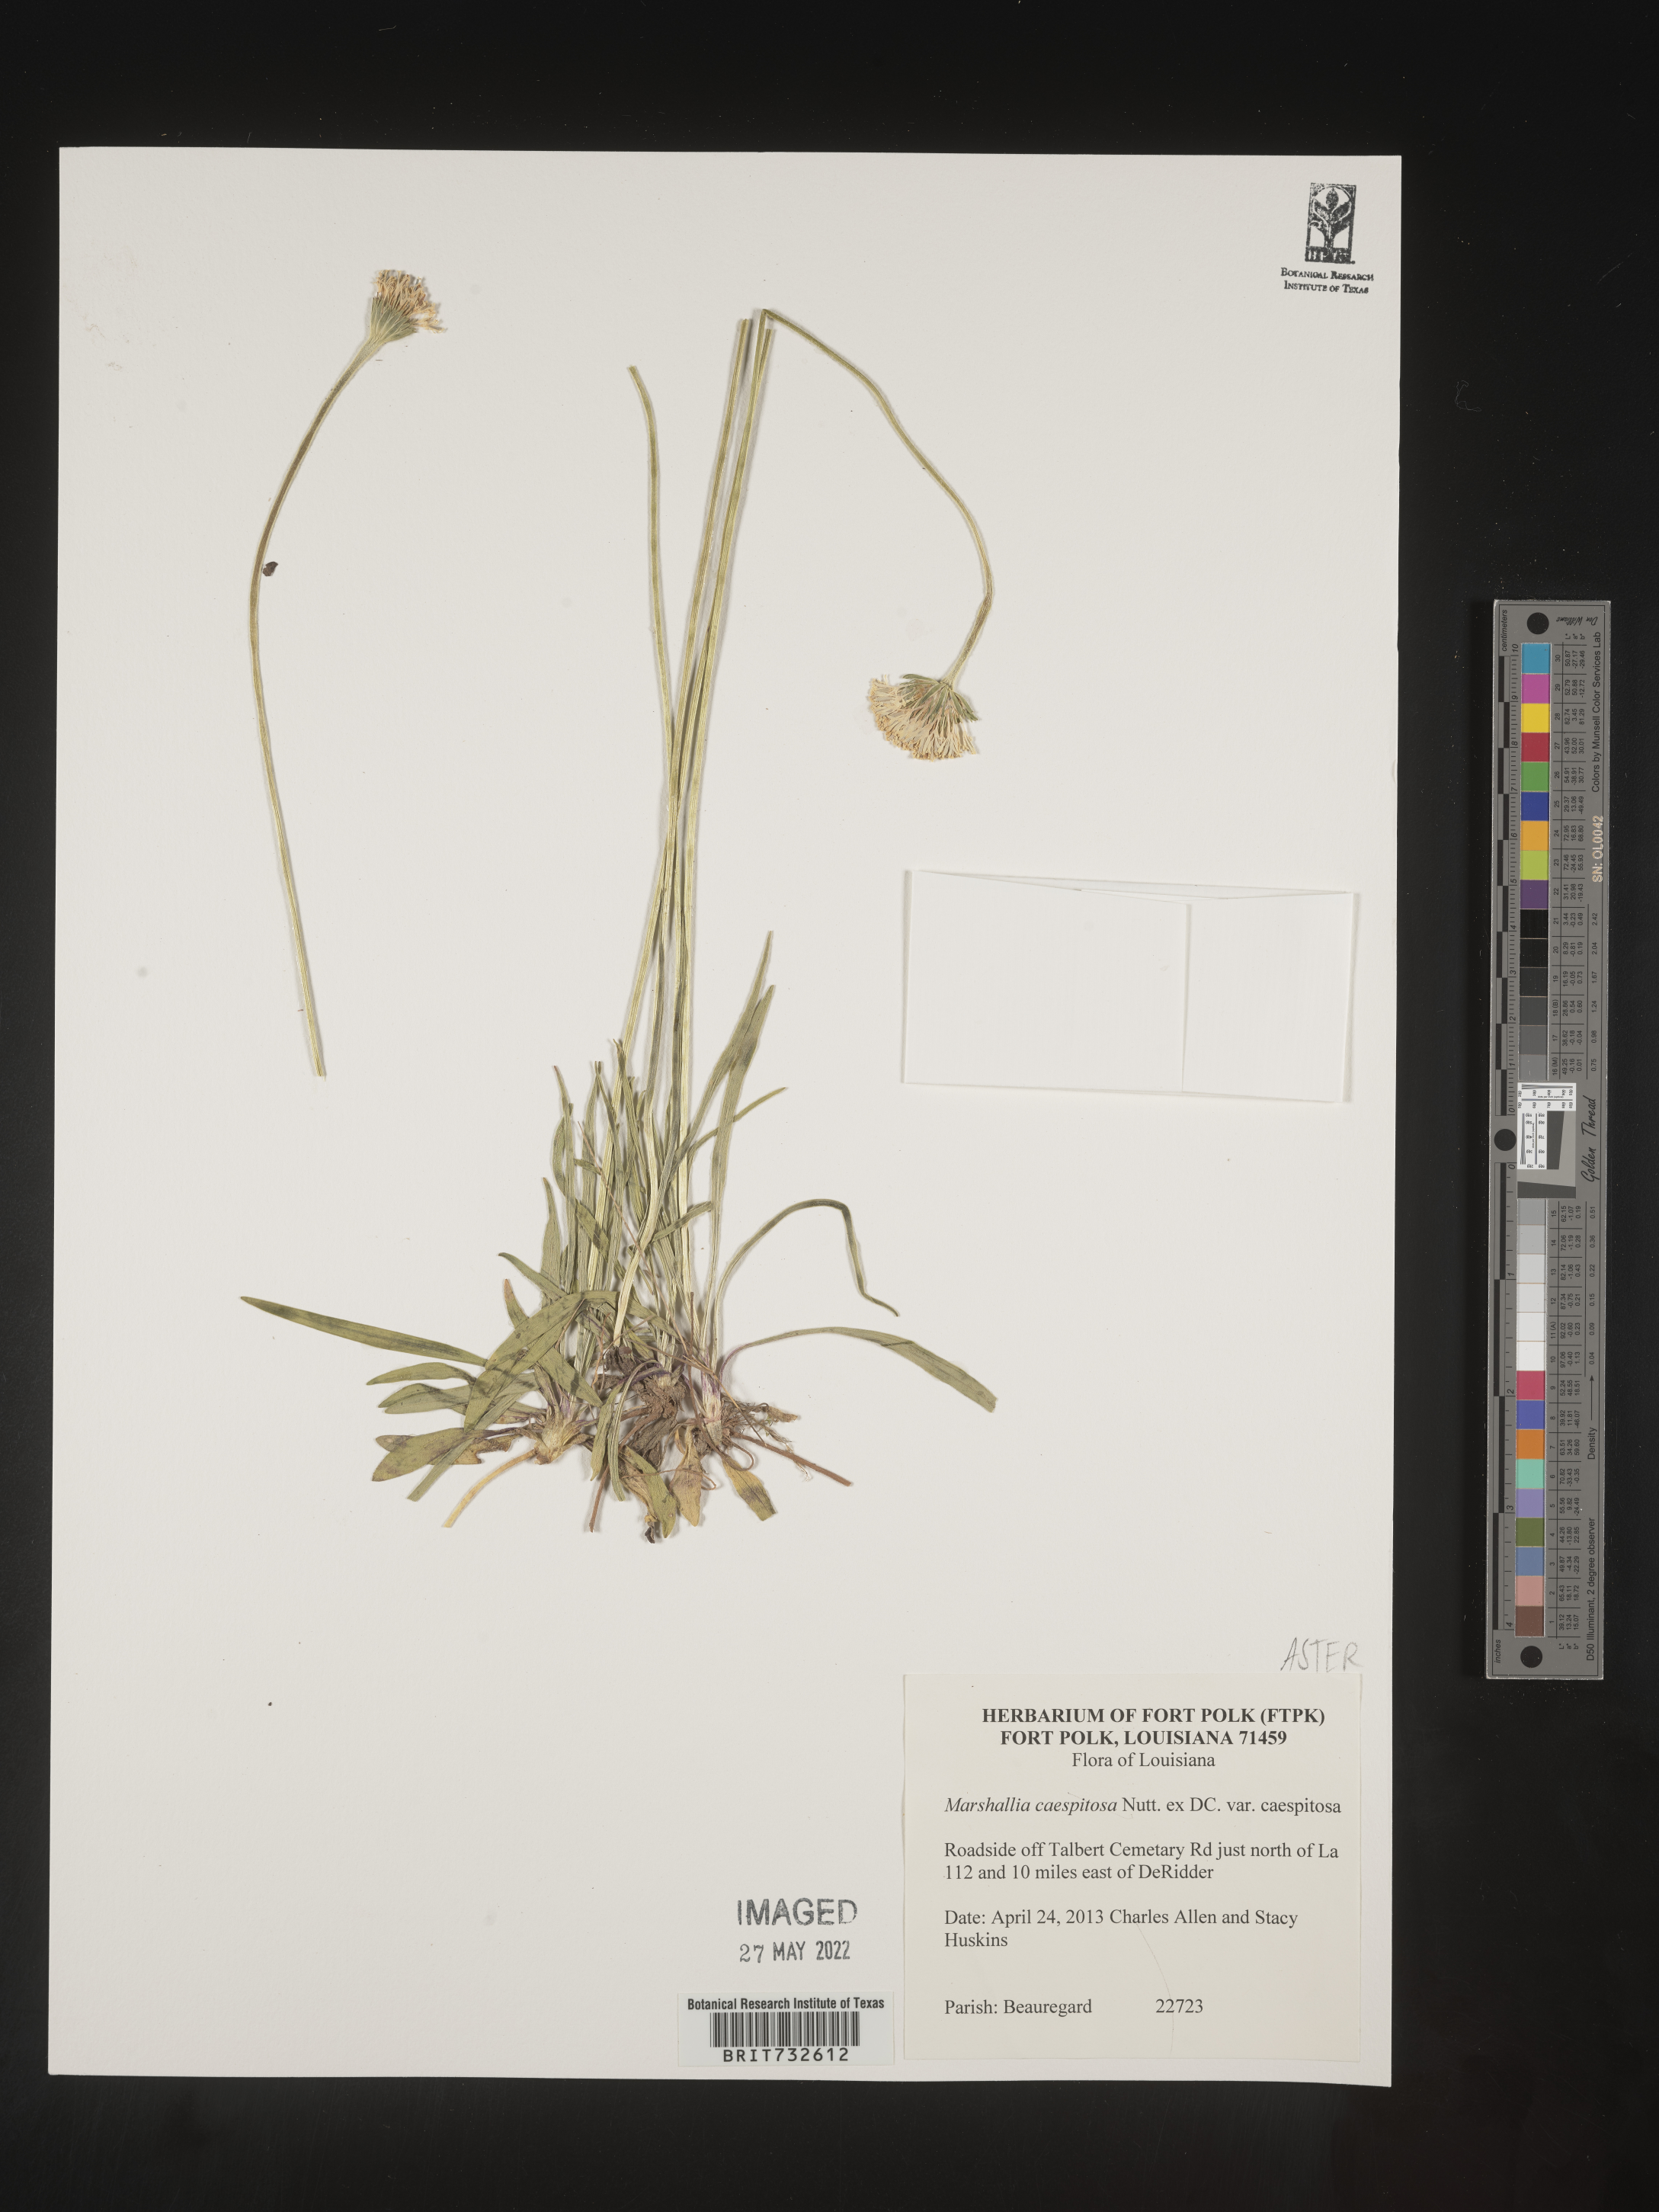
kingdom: Plantae
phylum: Tracheophyta
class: Magnoliopsida
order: Asterales
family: Asteraceae
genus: Marshallia
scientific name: Marshallia caespitosa
